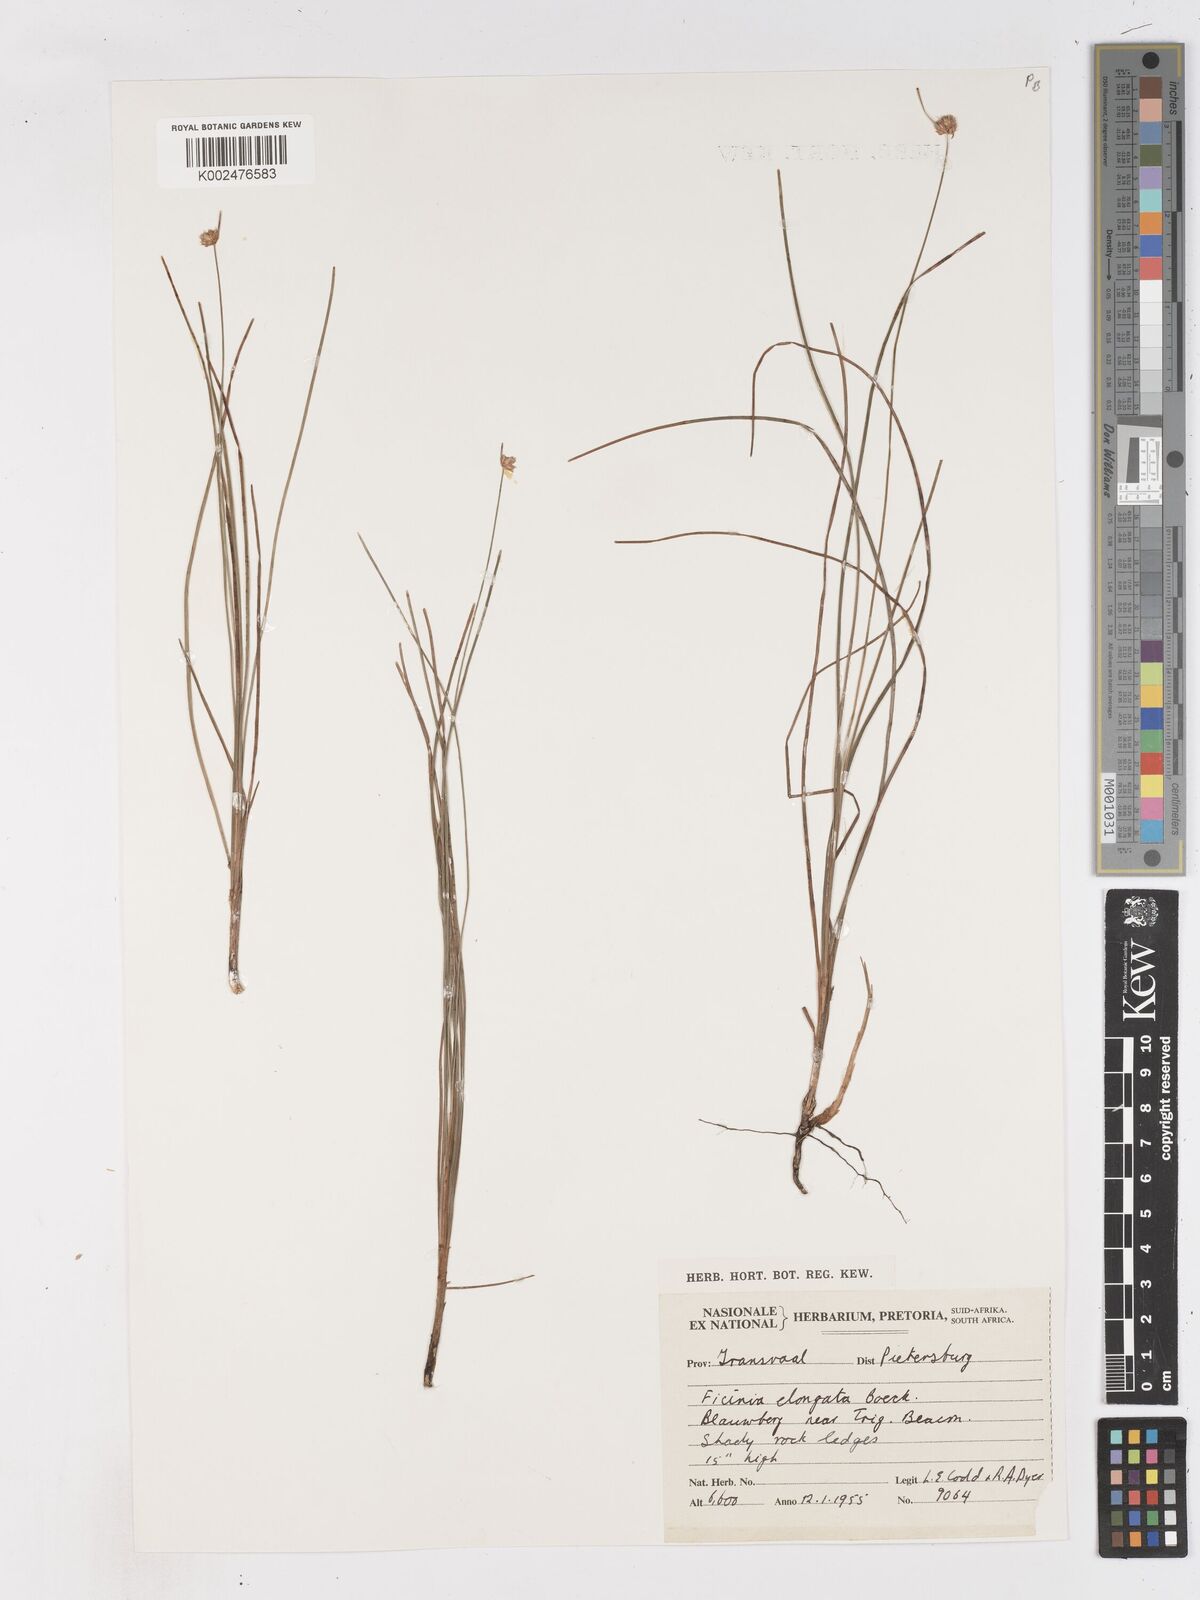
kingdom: Plantae
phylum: Tracheophyta
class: Liliopsida
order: Poales
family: Cyperaceae
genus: Ficinia
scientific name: Ficinia
